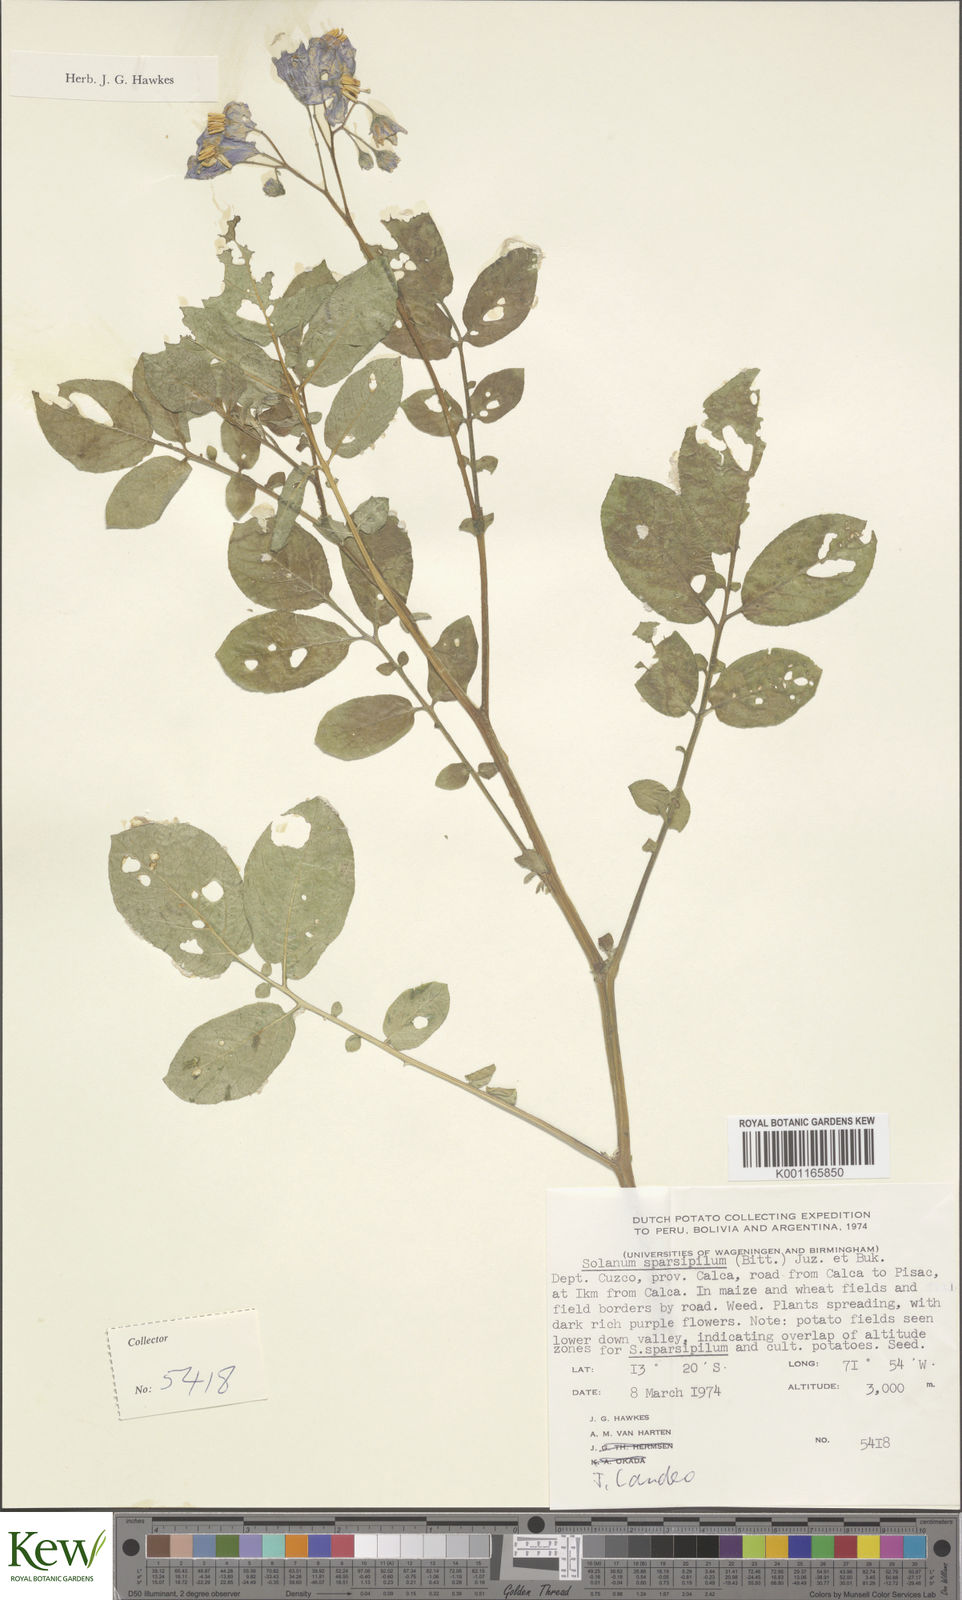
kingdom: Plantae
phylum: Tracheophyta
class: Magnoliopsida
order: Solanales
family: Solanaceae
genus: Solanum
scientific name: Solanum brevicaule
